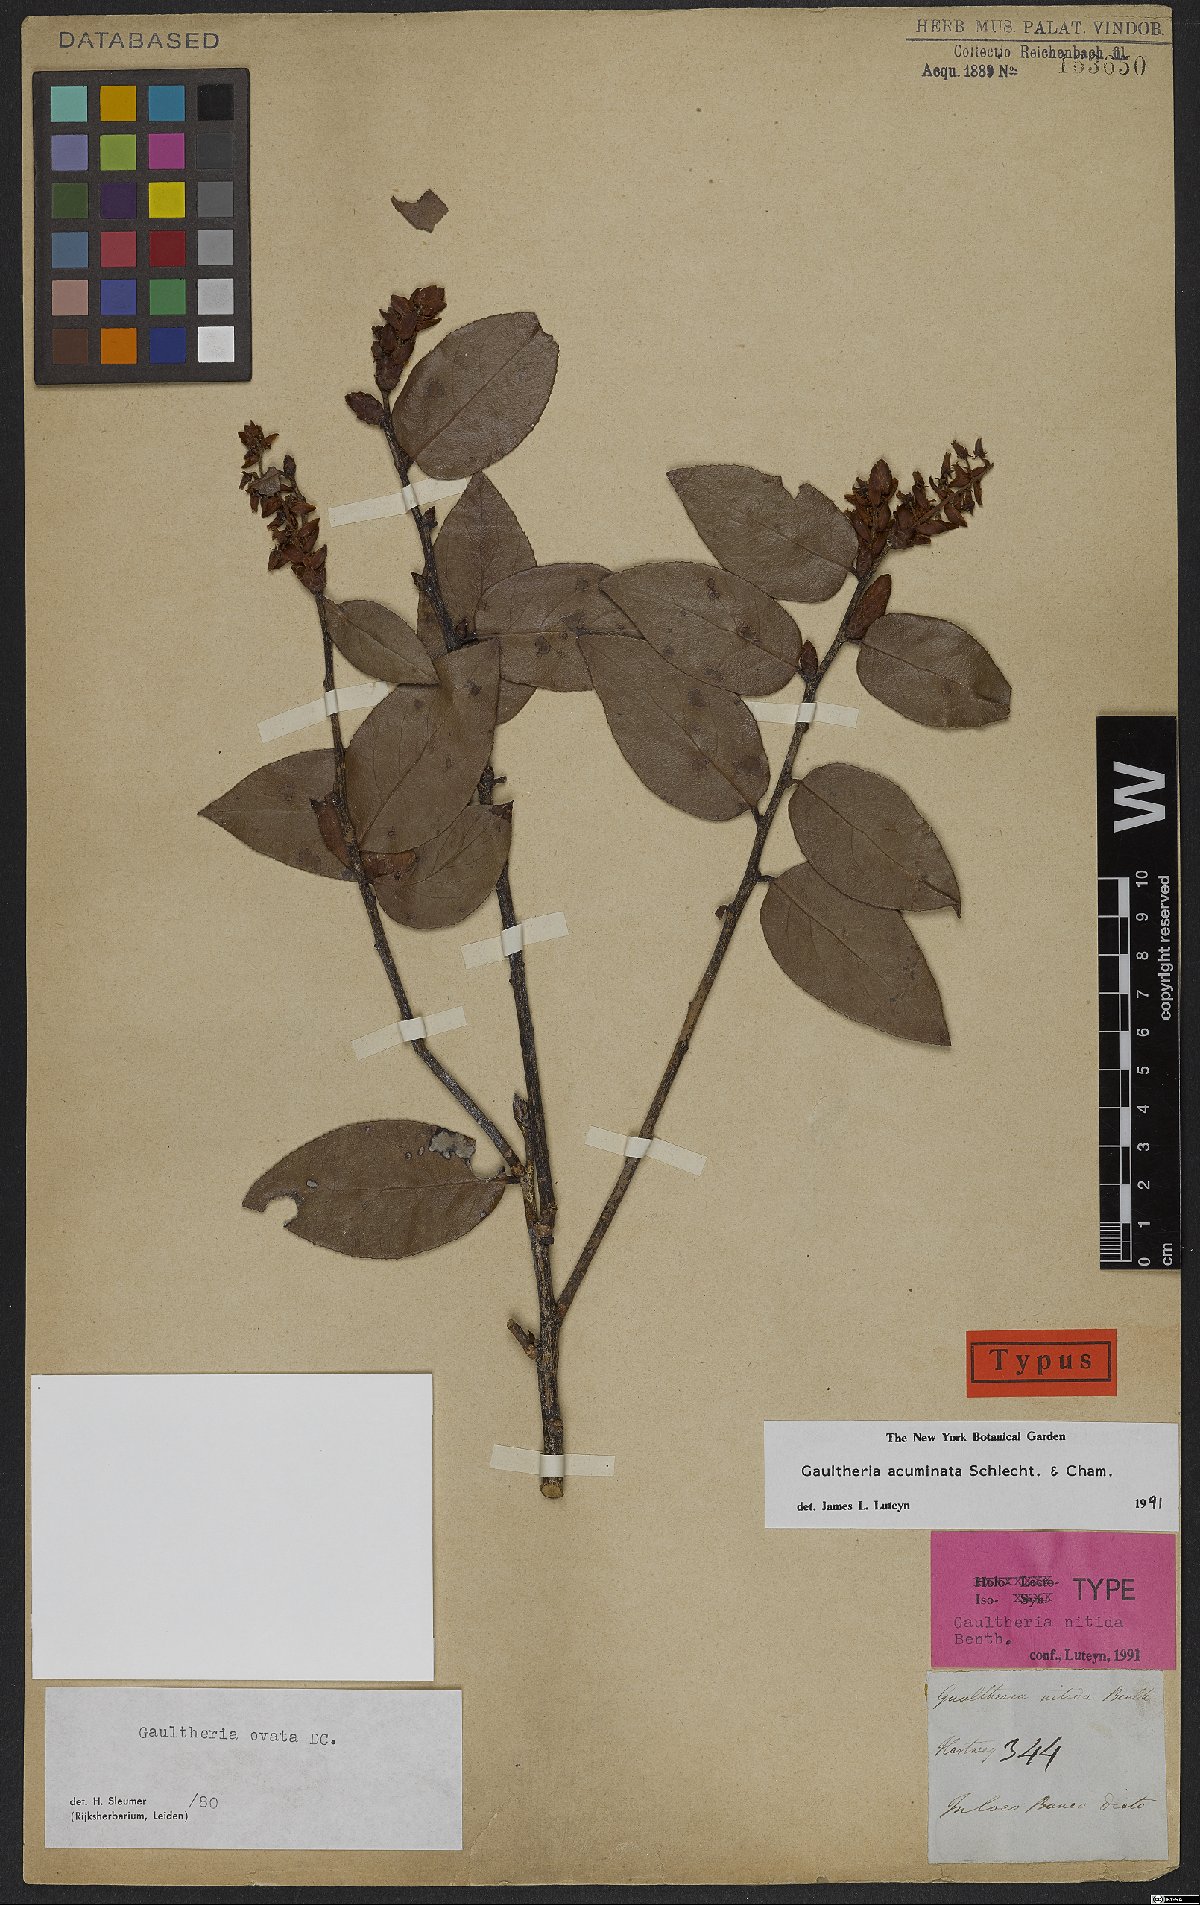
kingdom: Plantae
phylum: Tracheophyta
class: Magnoliopsida
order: Ericales
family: Ericaceae
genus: Gaultheria
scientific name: Gaultheria acuminata
